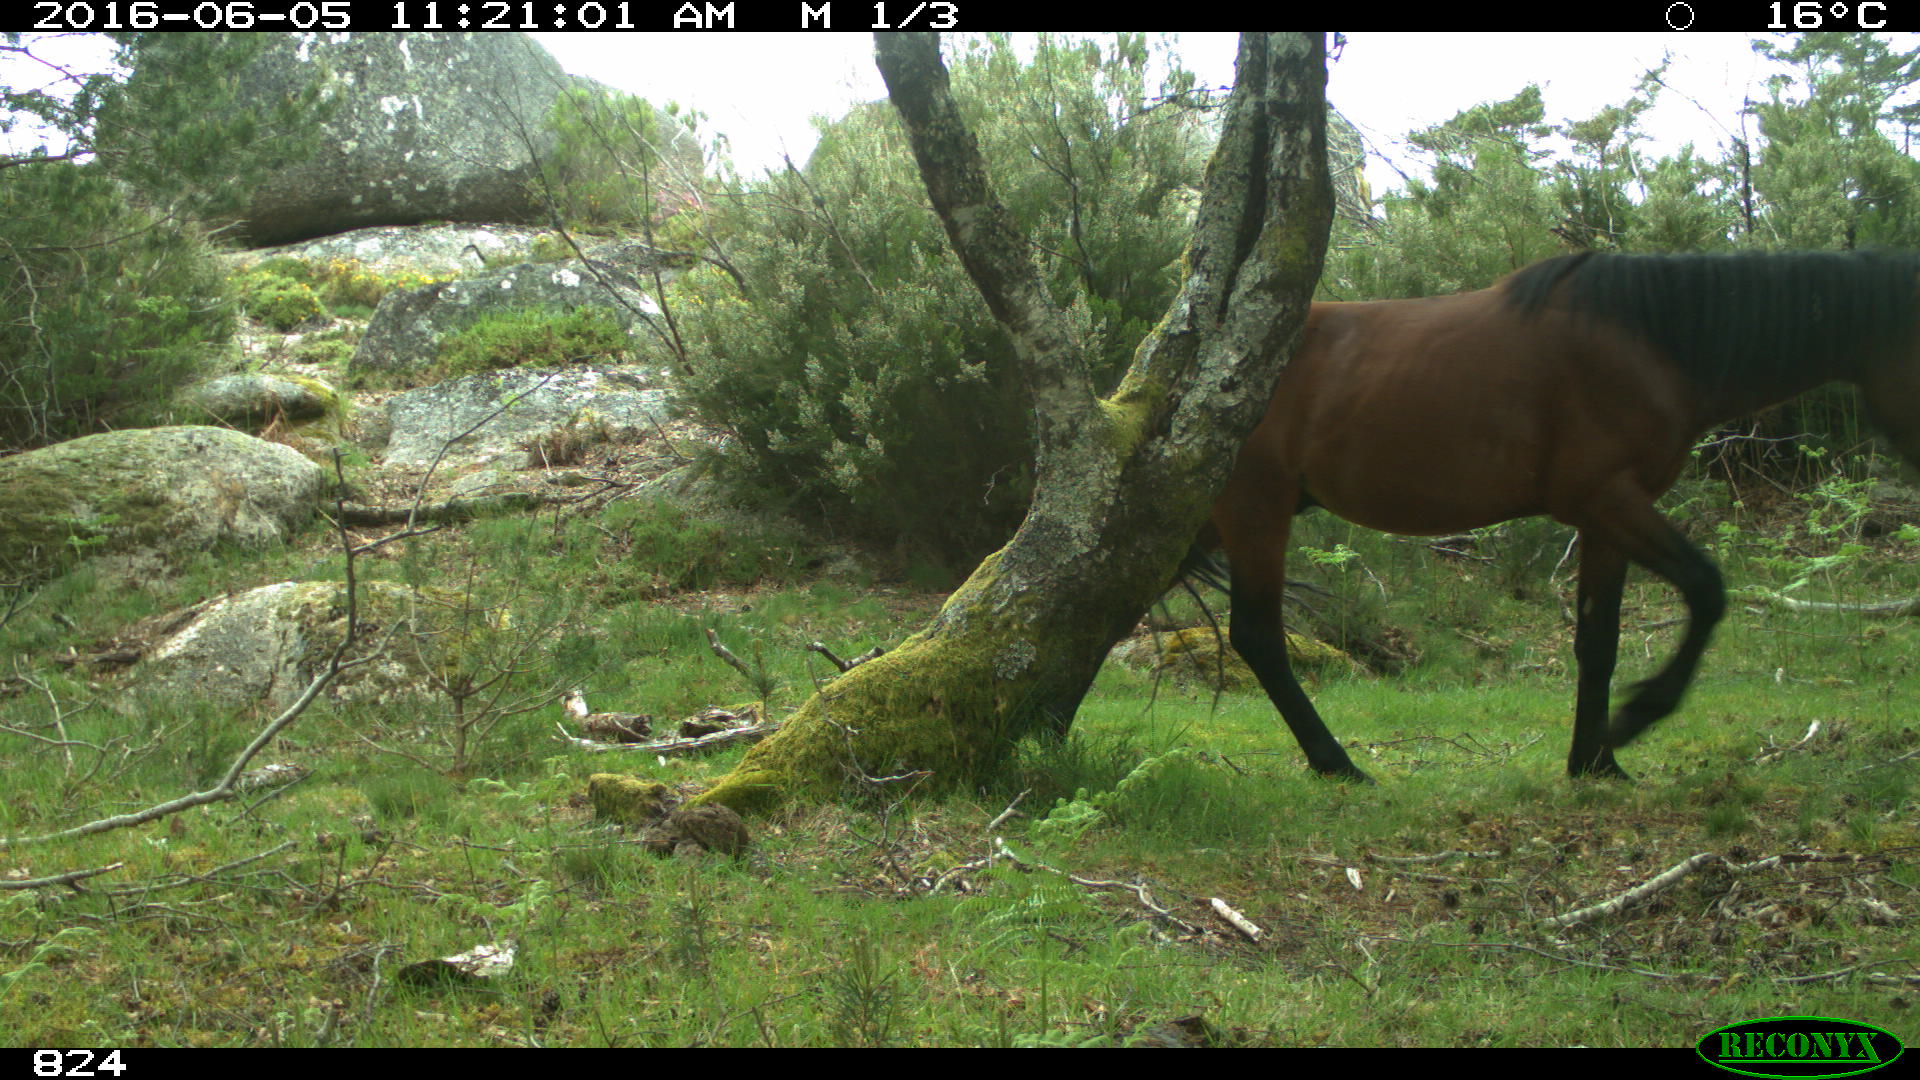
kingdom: Animalia
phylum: Chordata
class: Mammalia
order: Perissodactyla
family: Equidae
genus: Equus
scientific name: Equus caballus
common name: Horse
